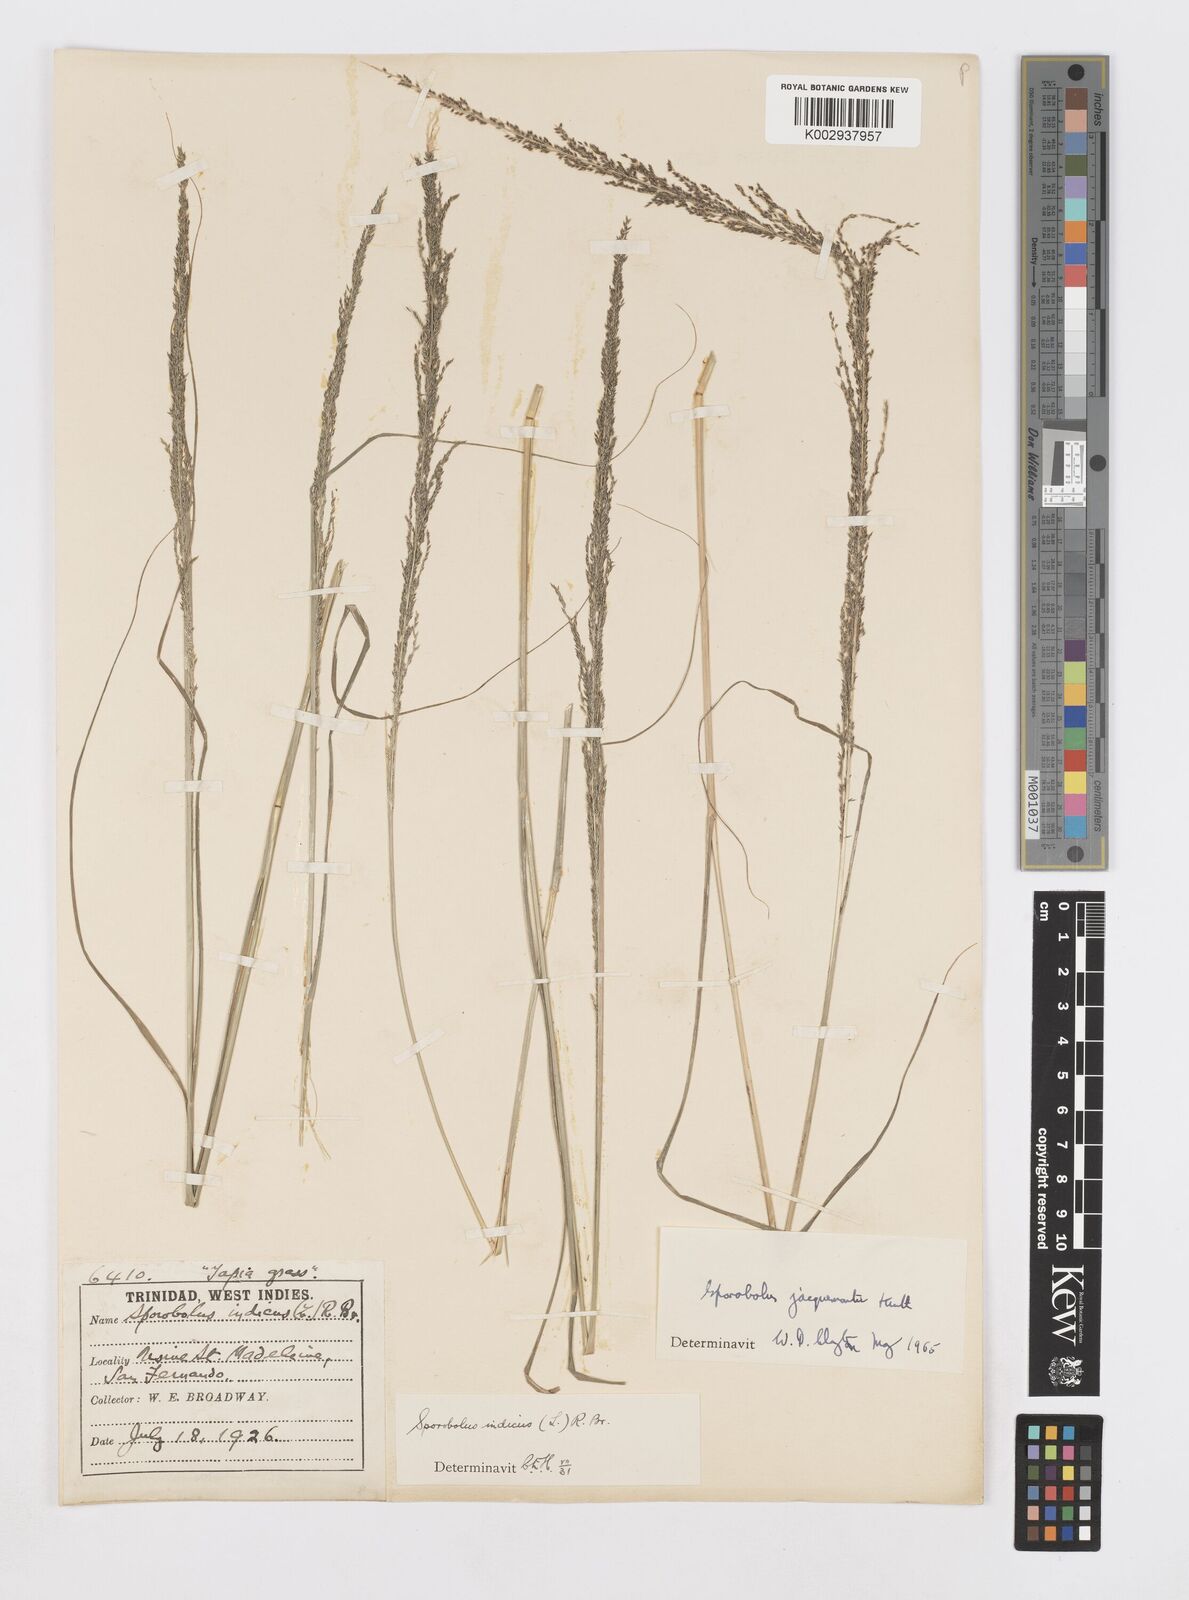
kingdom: Plantae
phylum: Tracheophyta
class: Liliopsida
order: Poales
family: Poaceae
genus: Sporobolus
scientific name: Sporobolus pyramidalis
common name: West indian dropseed
